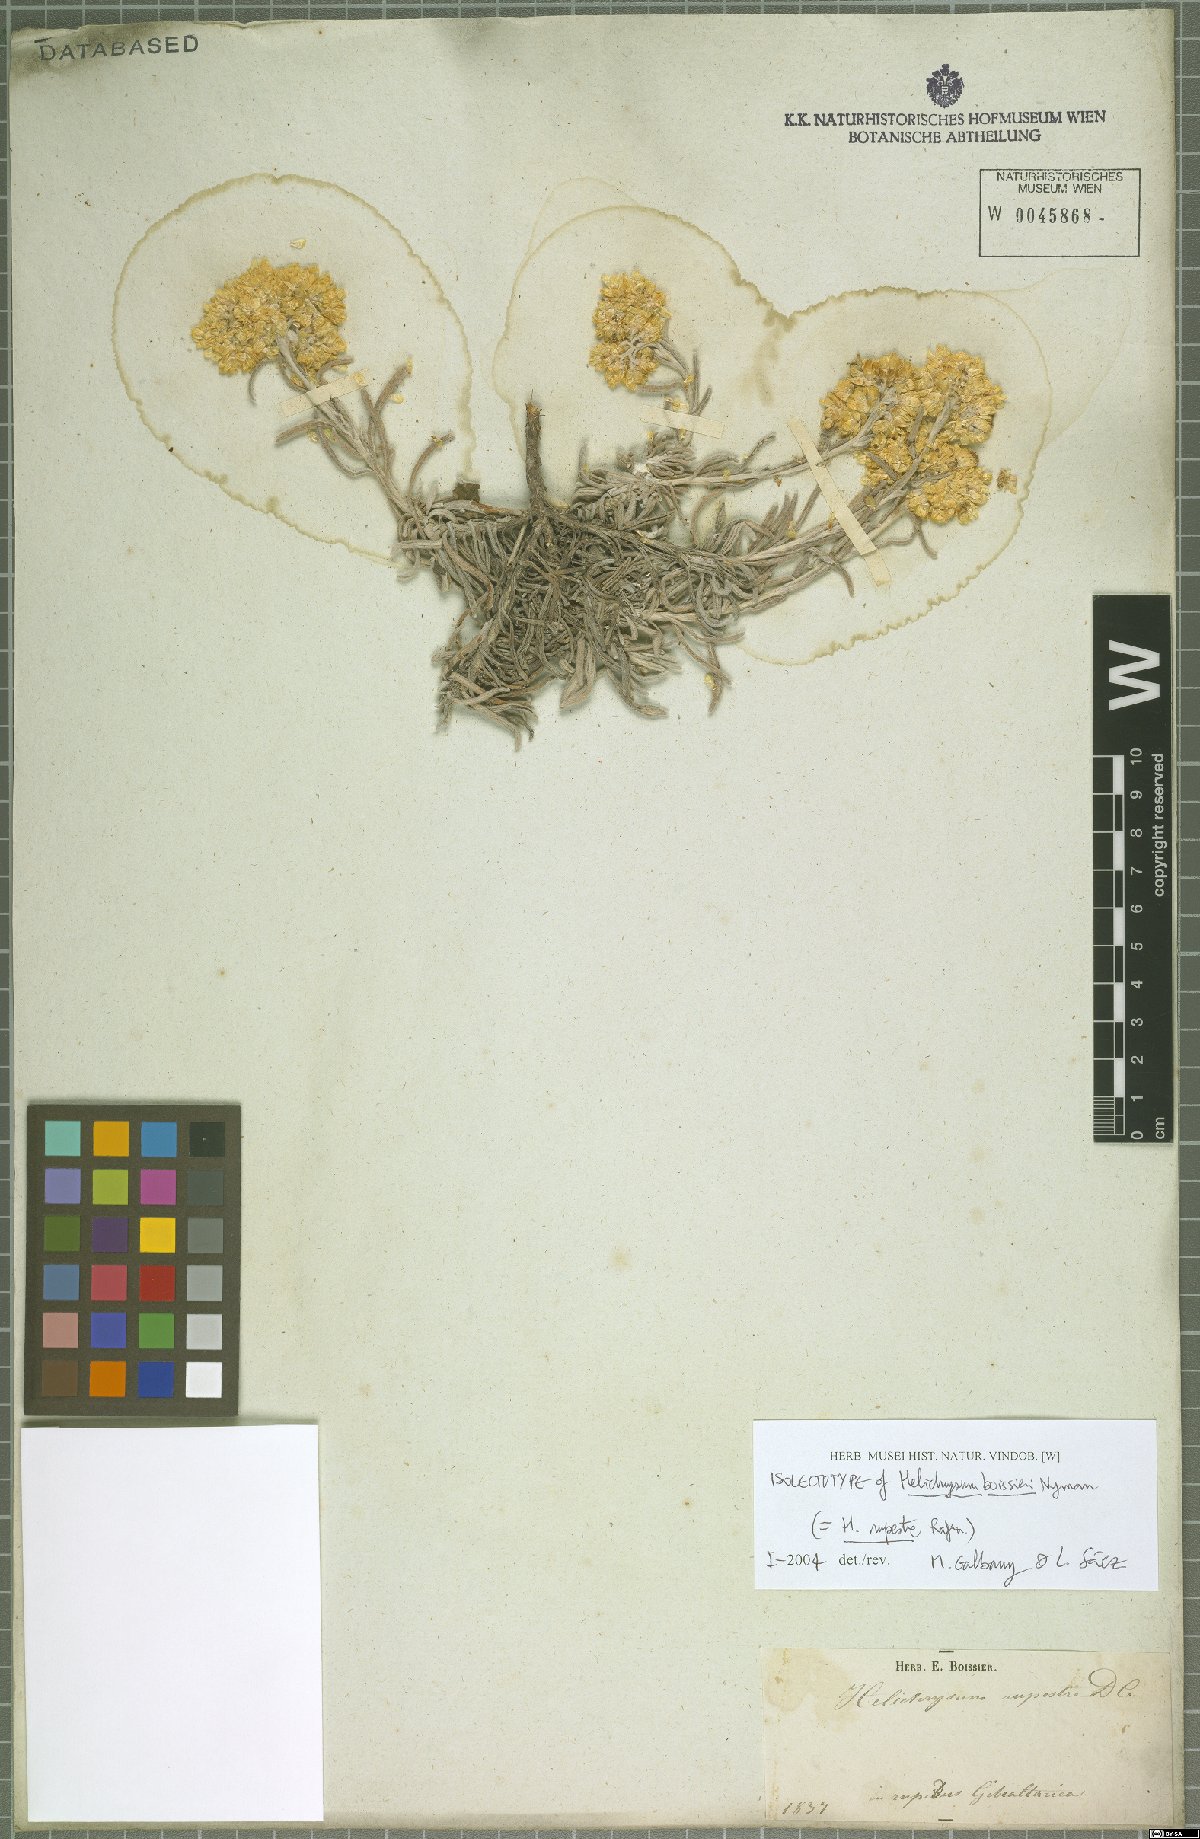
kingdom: Plantae
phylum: Tracheophyta
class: Magnoliopsida
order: Asterales
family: Asteraceae
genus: Helichrysum
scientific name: Helichrysum panormitanum
